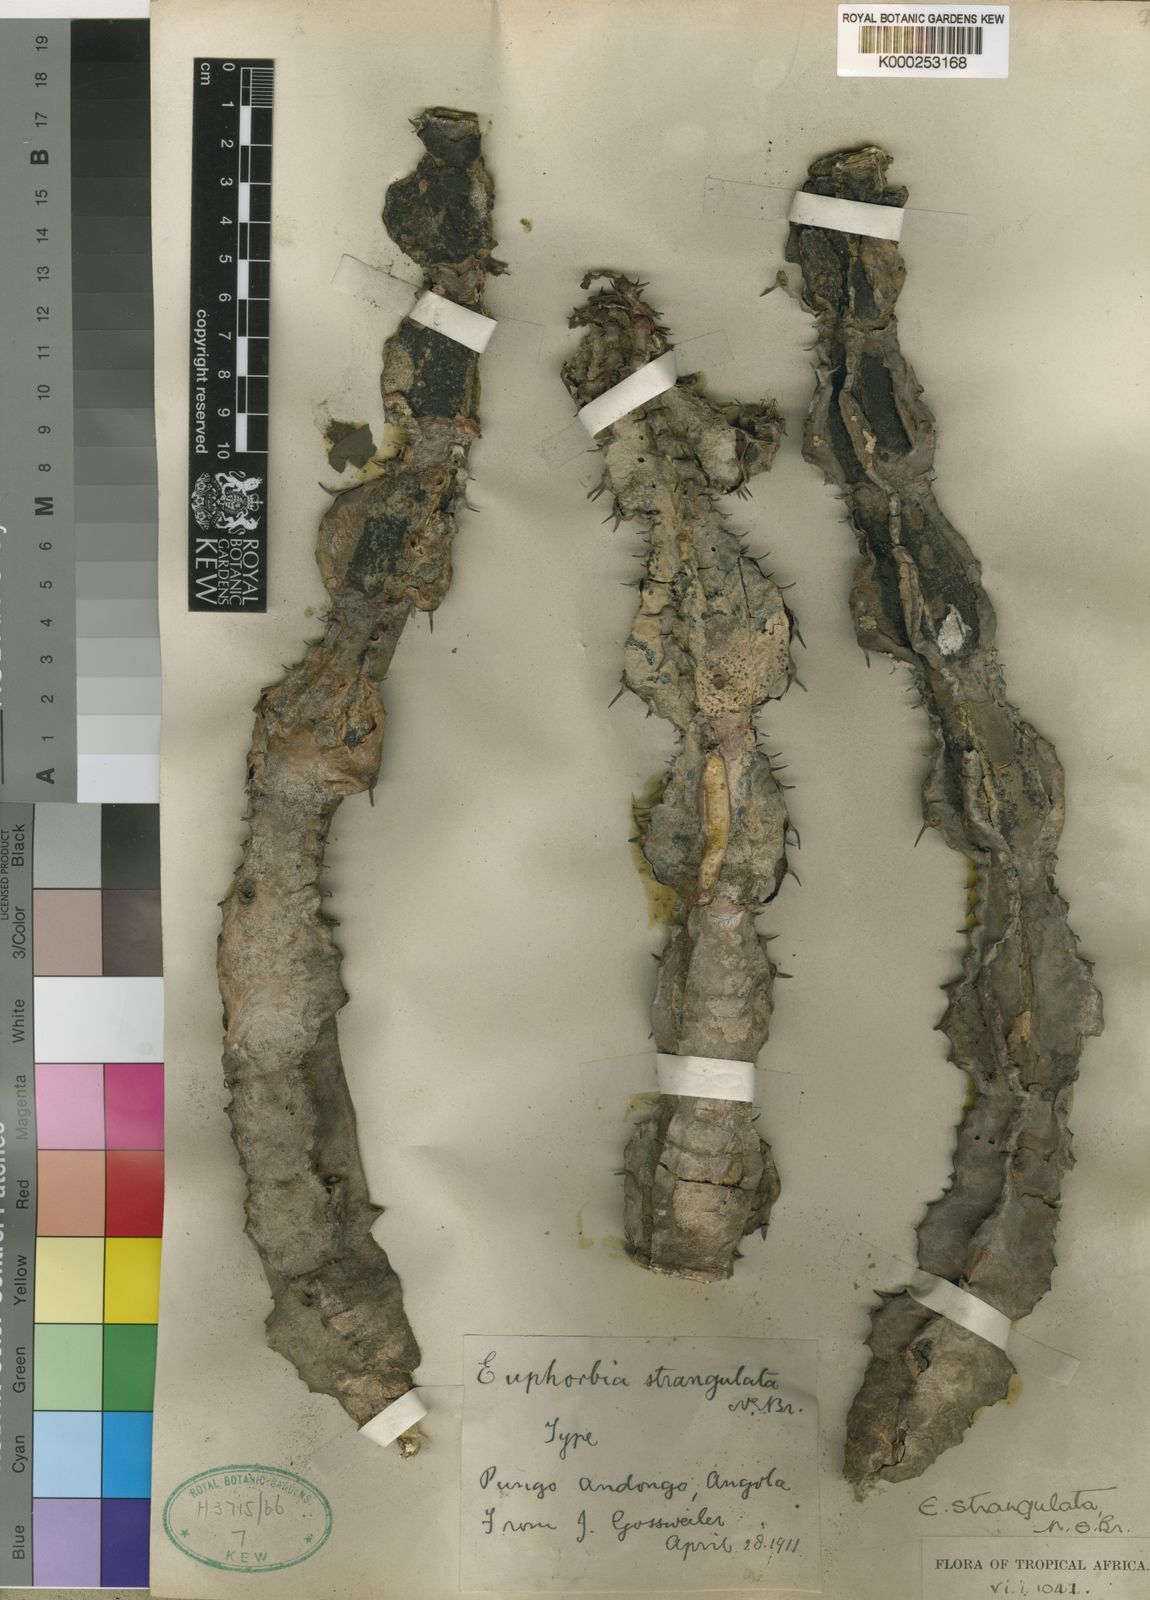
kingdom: Plantae
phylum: Tracheophyta
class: Magnoliopsida
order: Malpighiales
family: Euphorbiaceae
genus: Euphorbia
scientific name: Euphorbia strangulata
